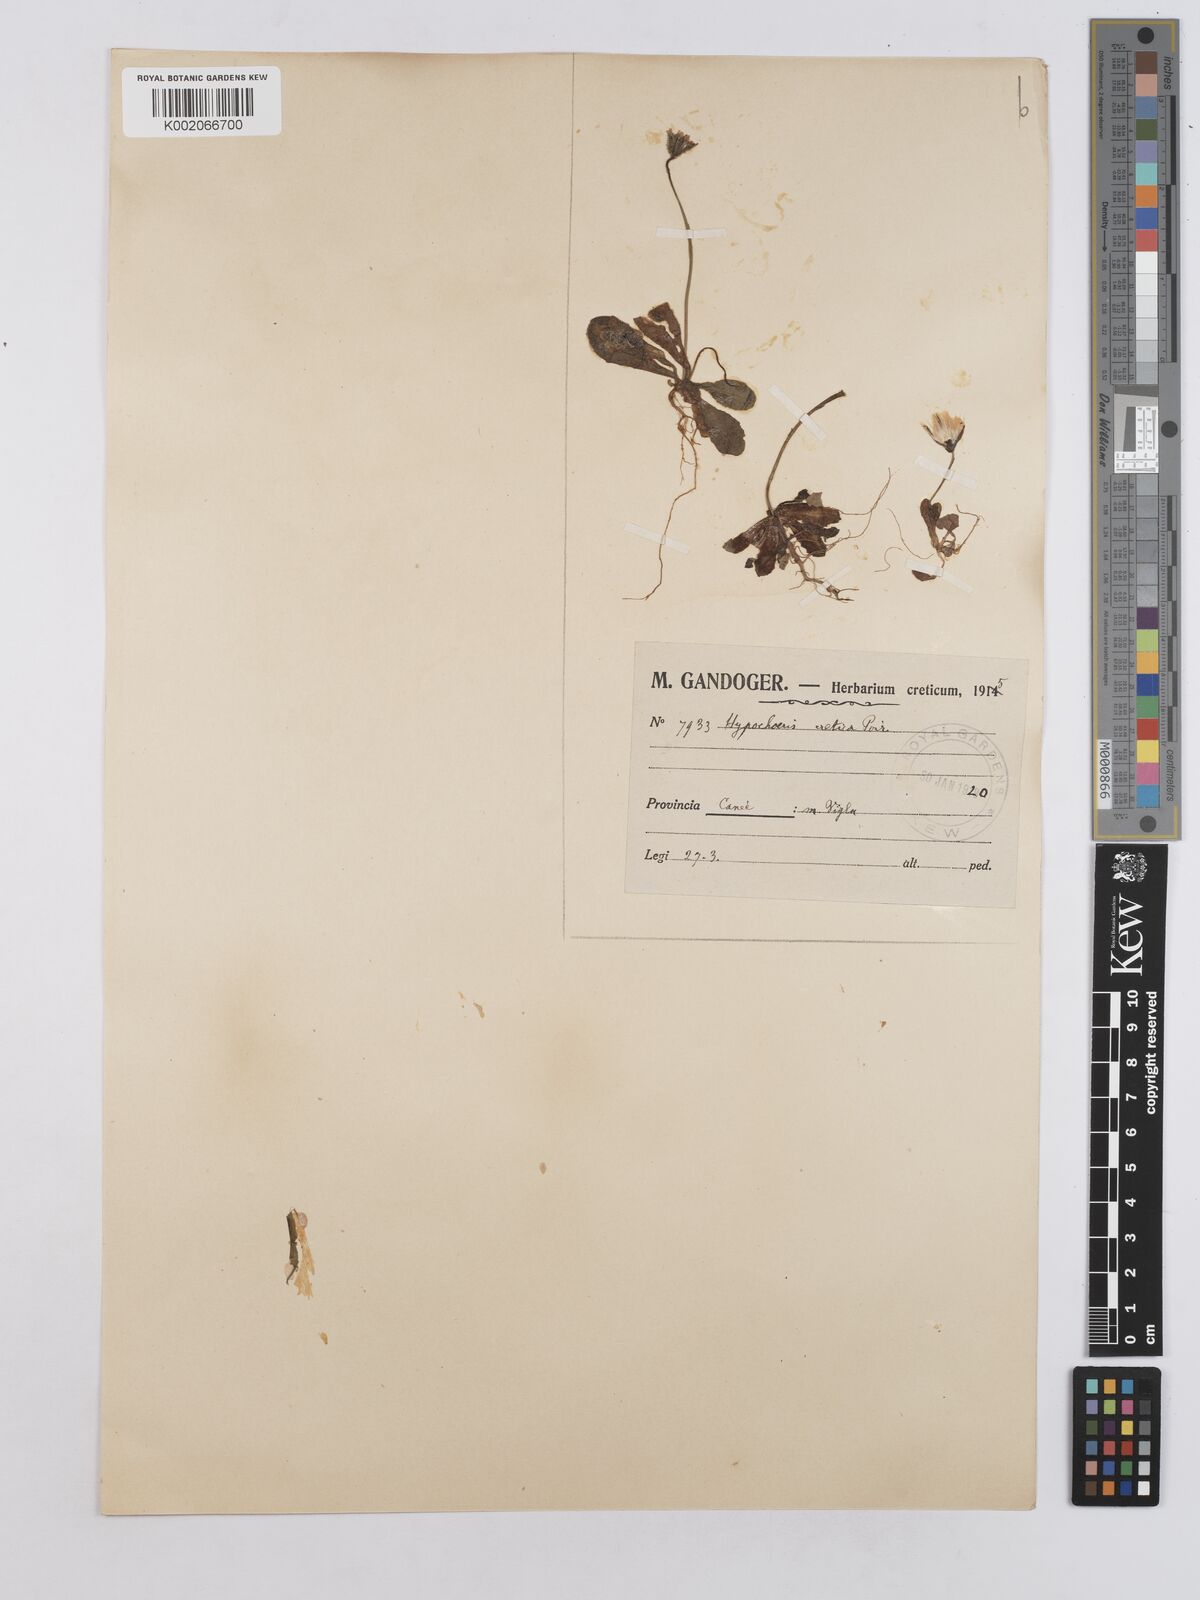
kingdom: Plantae
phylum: Tracheophyta
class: Magnoliopsida
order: Asterales
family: Asteraceae
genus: Hedypnois
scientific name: Hedypnois rhagadioloides
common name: Cretan weed
